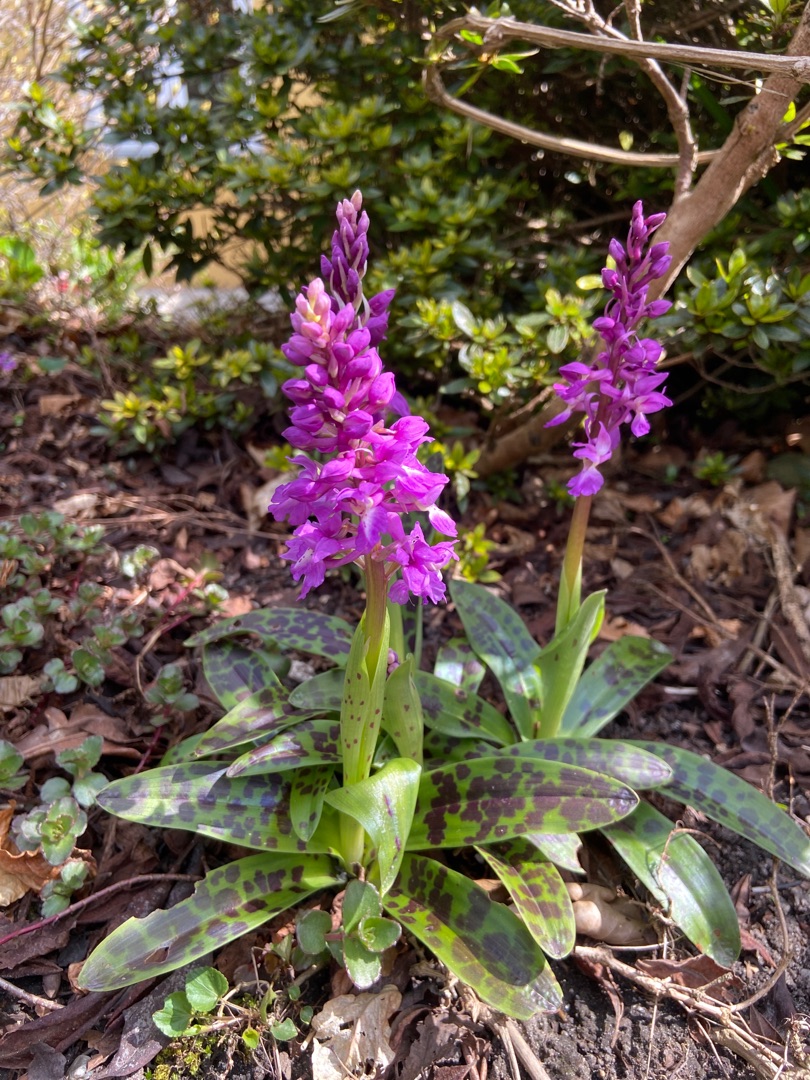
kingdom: Plantae
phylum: Tracheophyta
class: Liliopsida
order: Asparagales
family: Orchidaceae
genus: Orchis
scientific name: Orchis mascula
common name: Tyndakset gøgeurt
